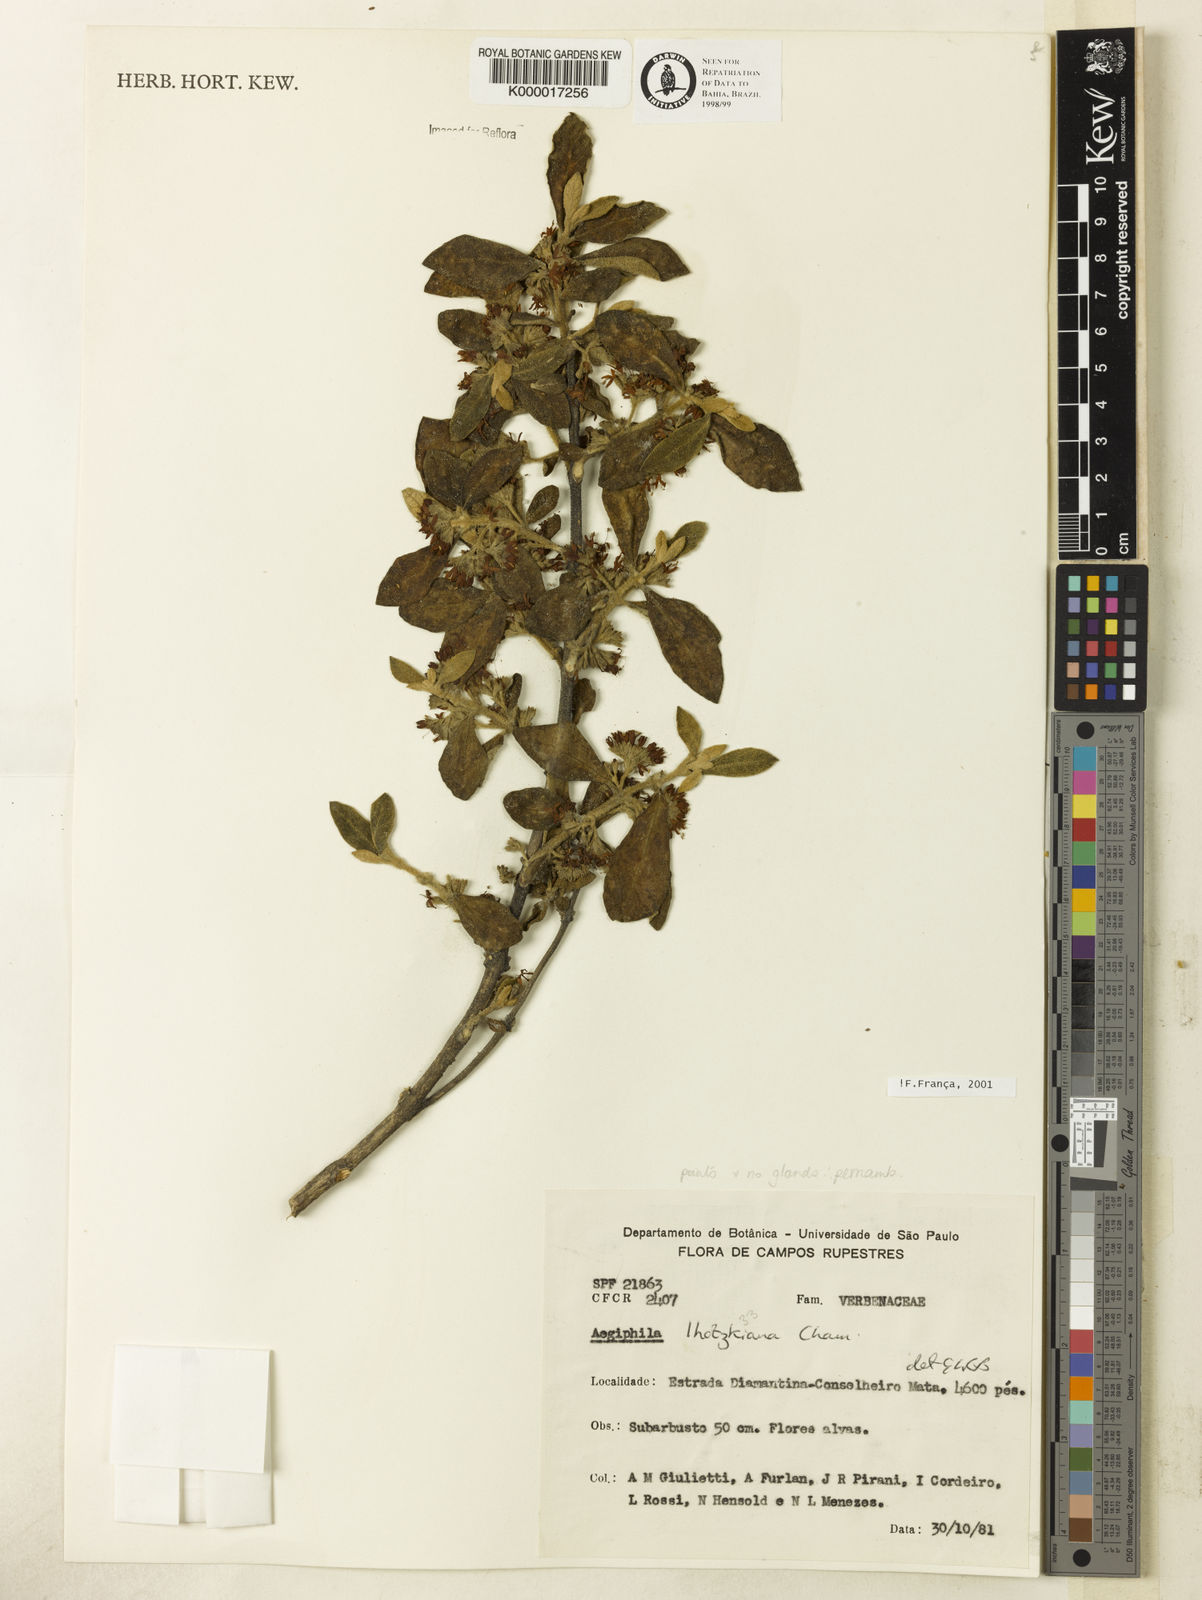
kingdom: Plantae
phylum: Tracheophyta
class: Magnoliopsida
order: Lamiales
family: Lamiaceae
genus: Aegiphila
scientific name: Aegiphila verticillata
